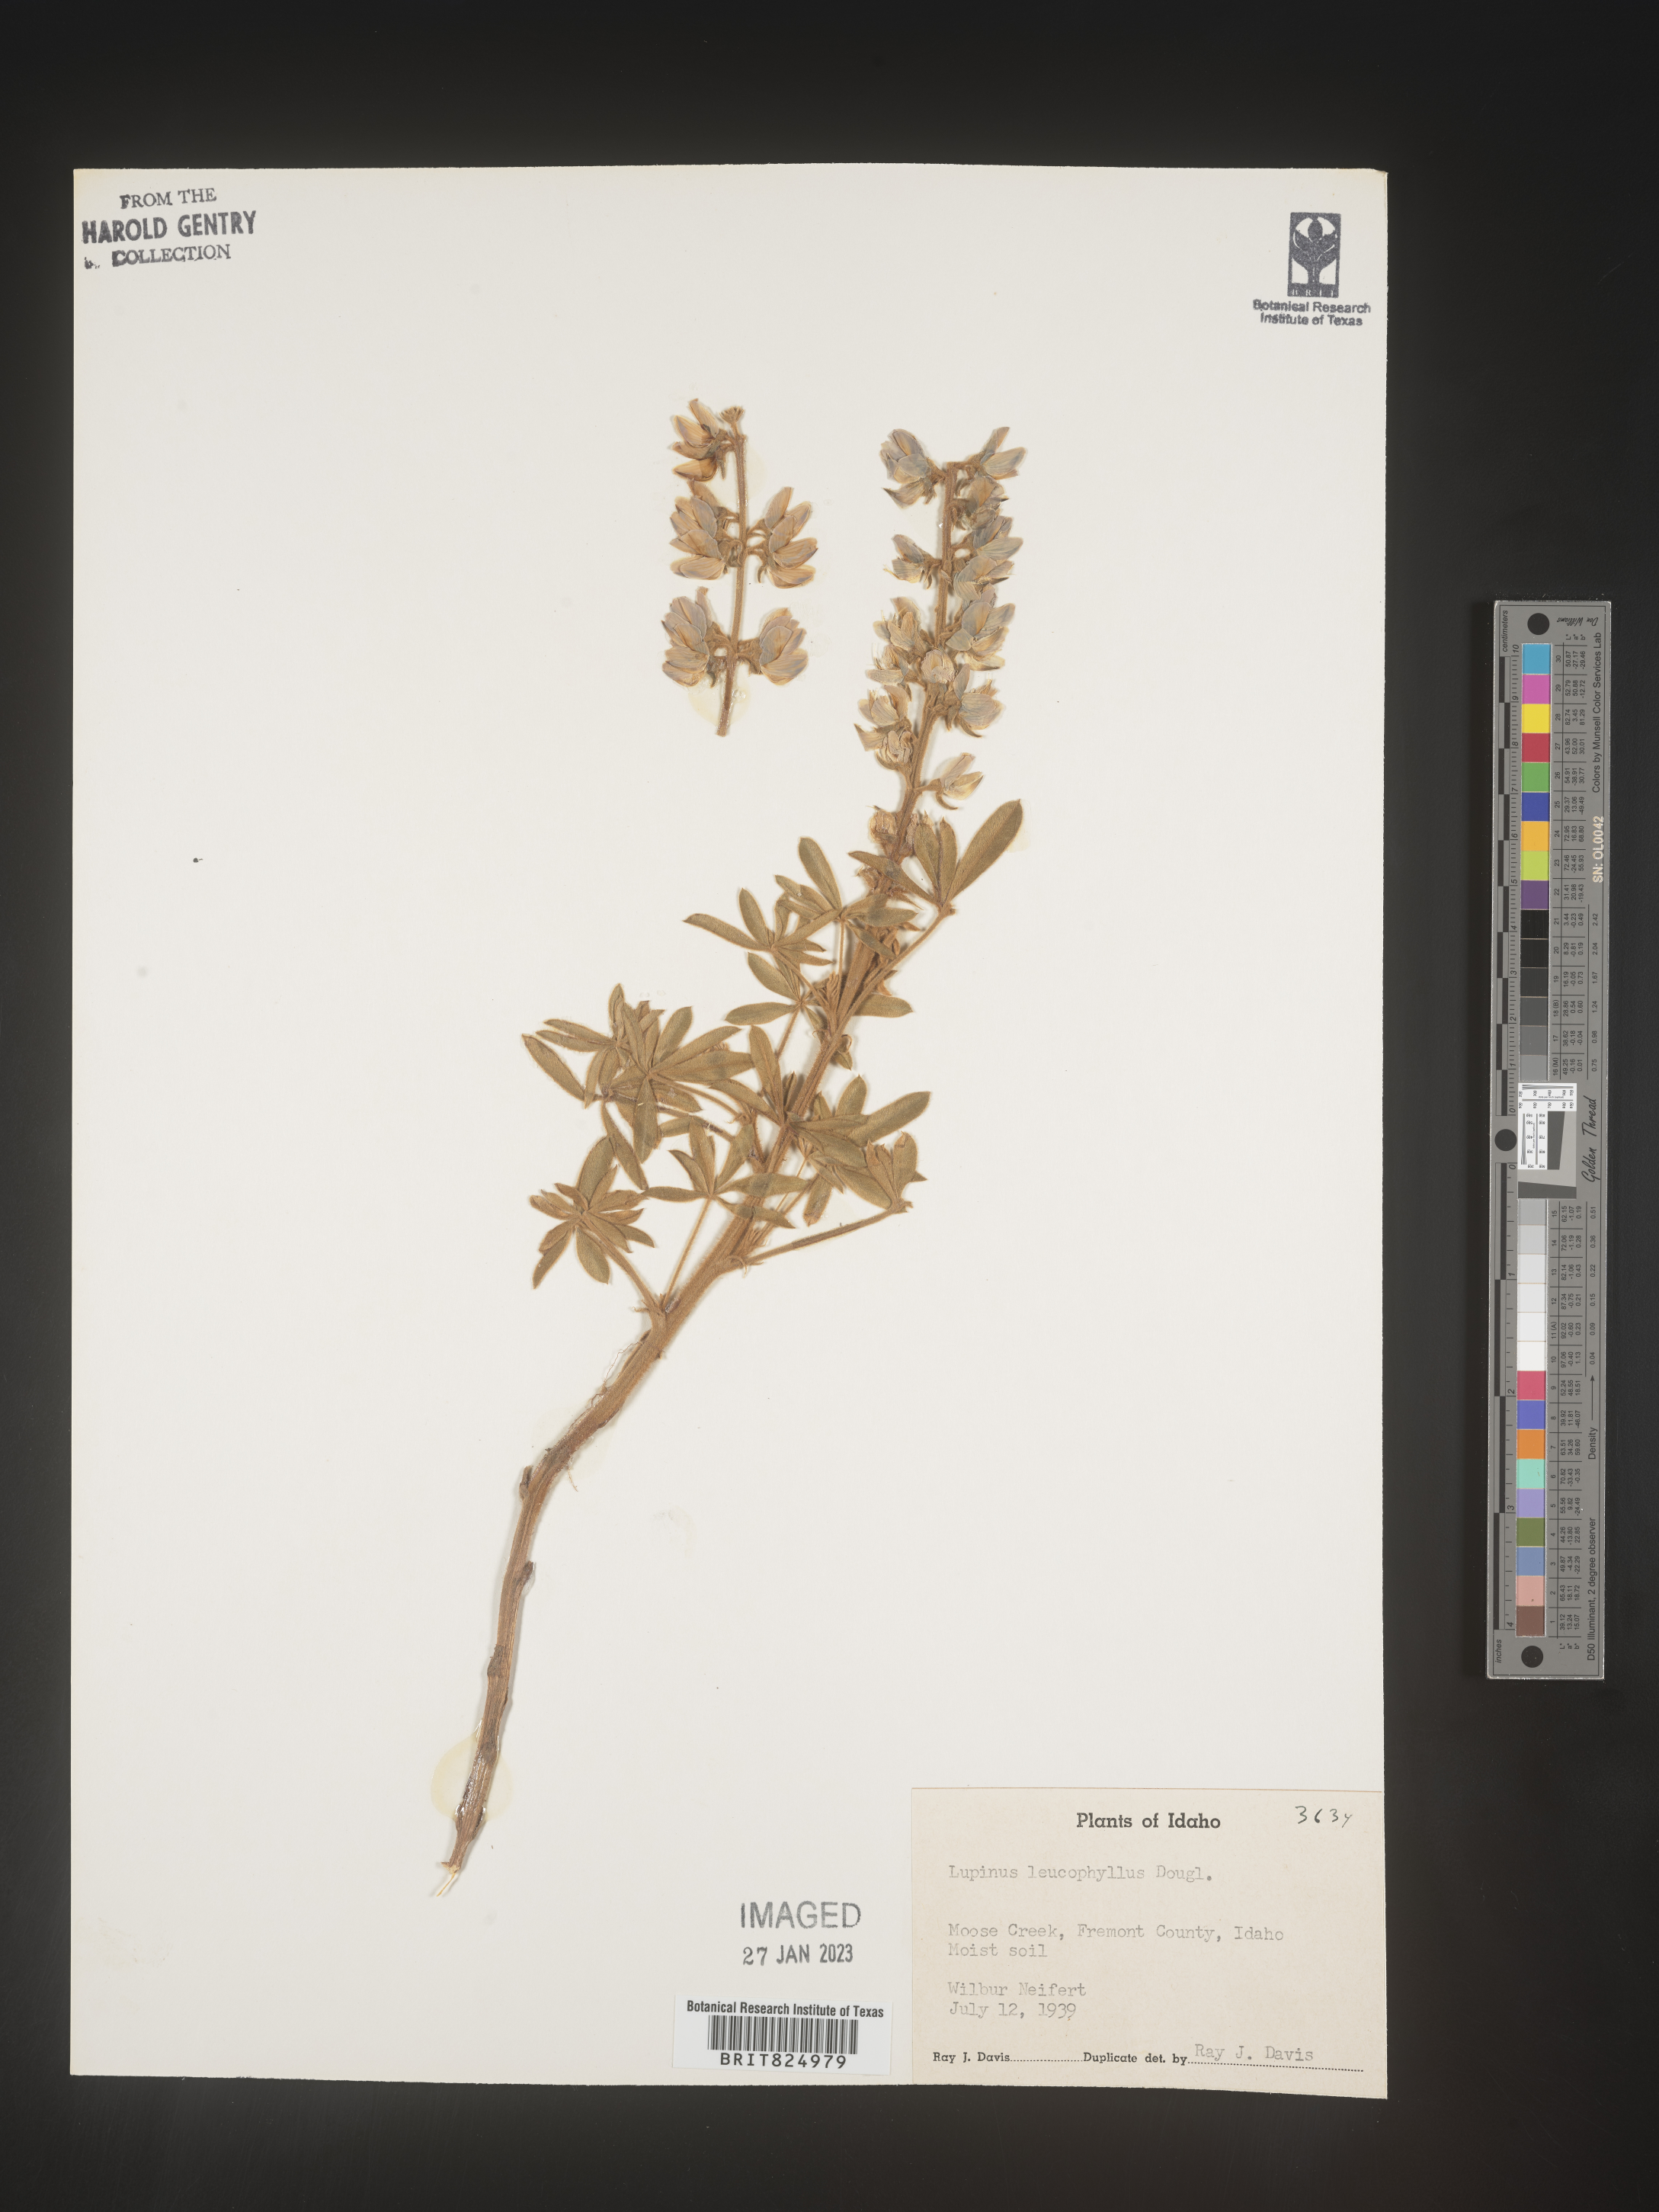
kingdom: Plantae
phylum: Tracheophyta
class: Magnoliopsida
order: Fabales
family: Fabaceae
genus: Lupinus
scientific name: Lupinus
